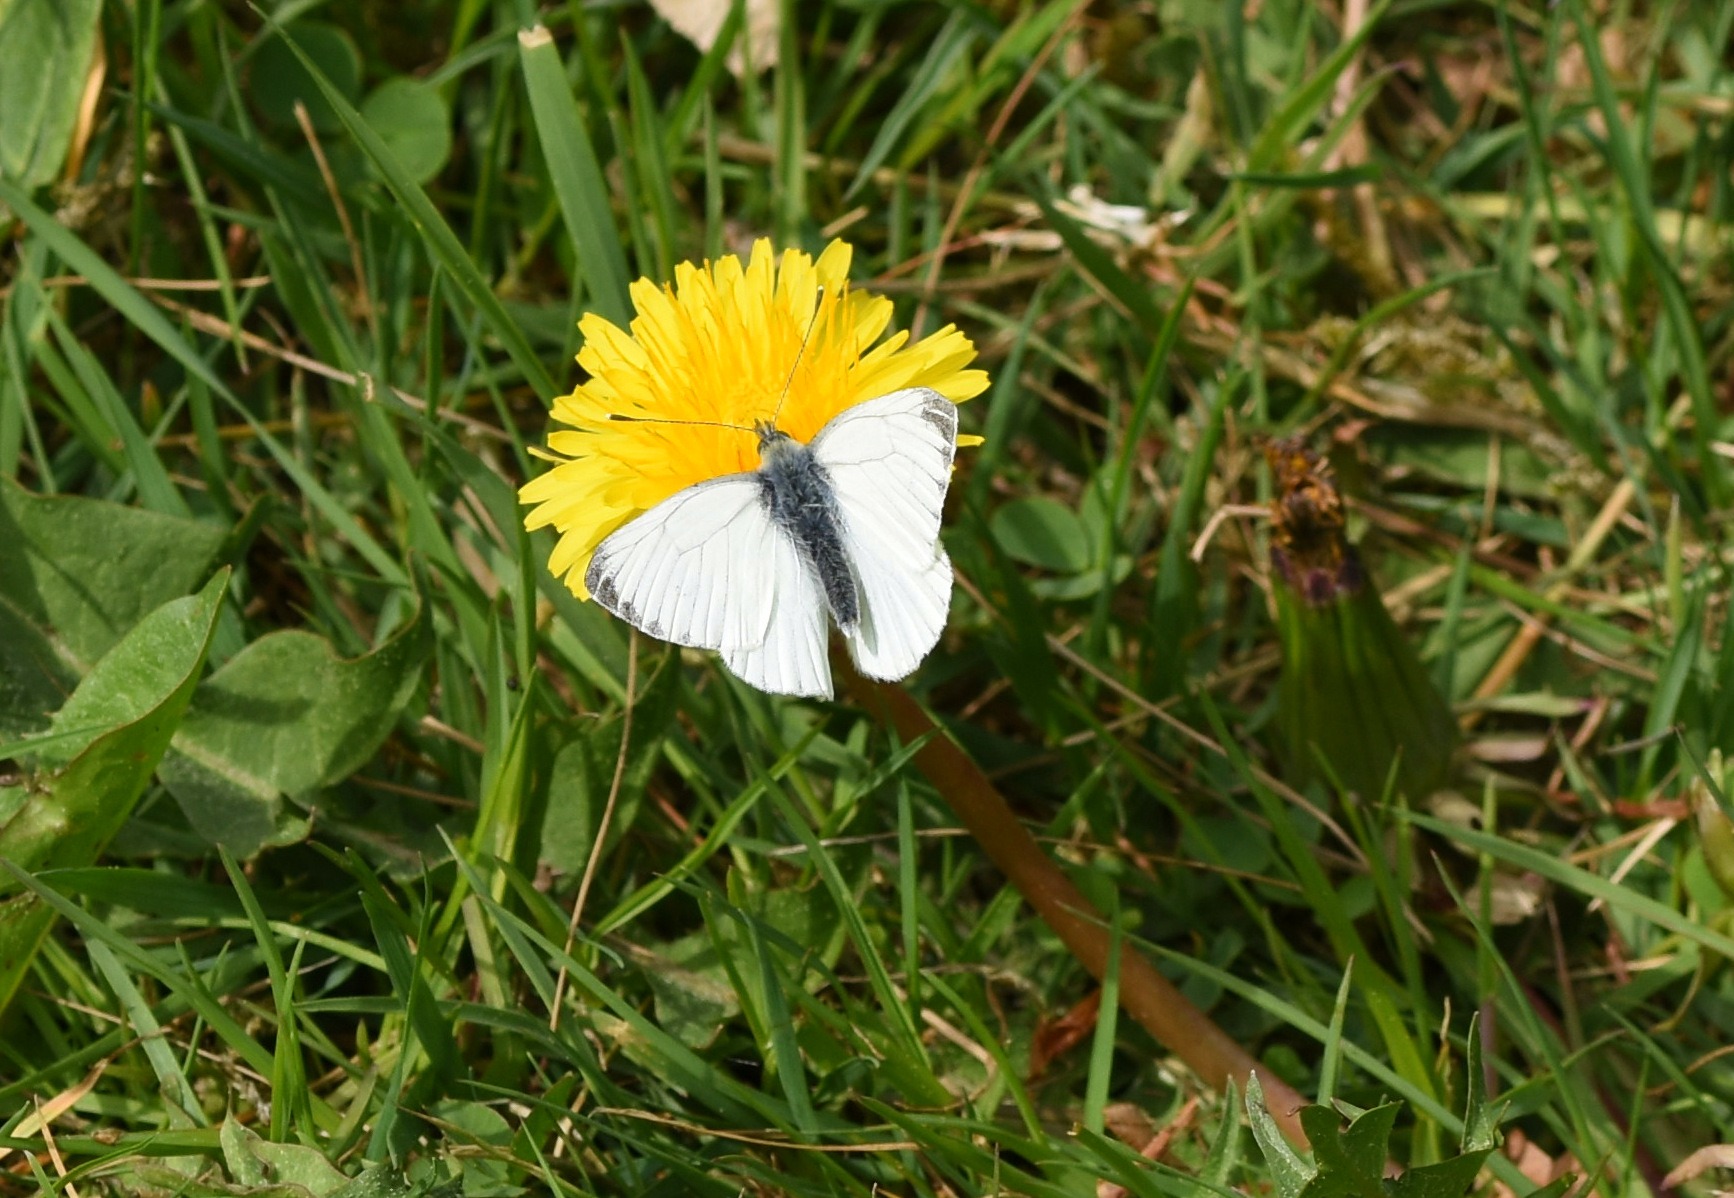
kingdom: Animalia
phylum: Arthropoda
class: Insecta
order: Lepidoptera
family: Pieridae
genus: Pieris
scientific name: Pieris napi
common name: Grønåret kålsommerfugl
